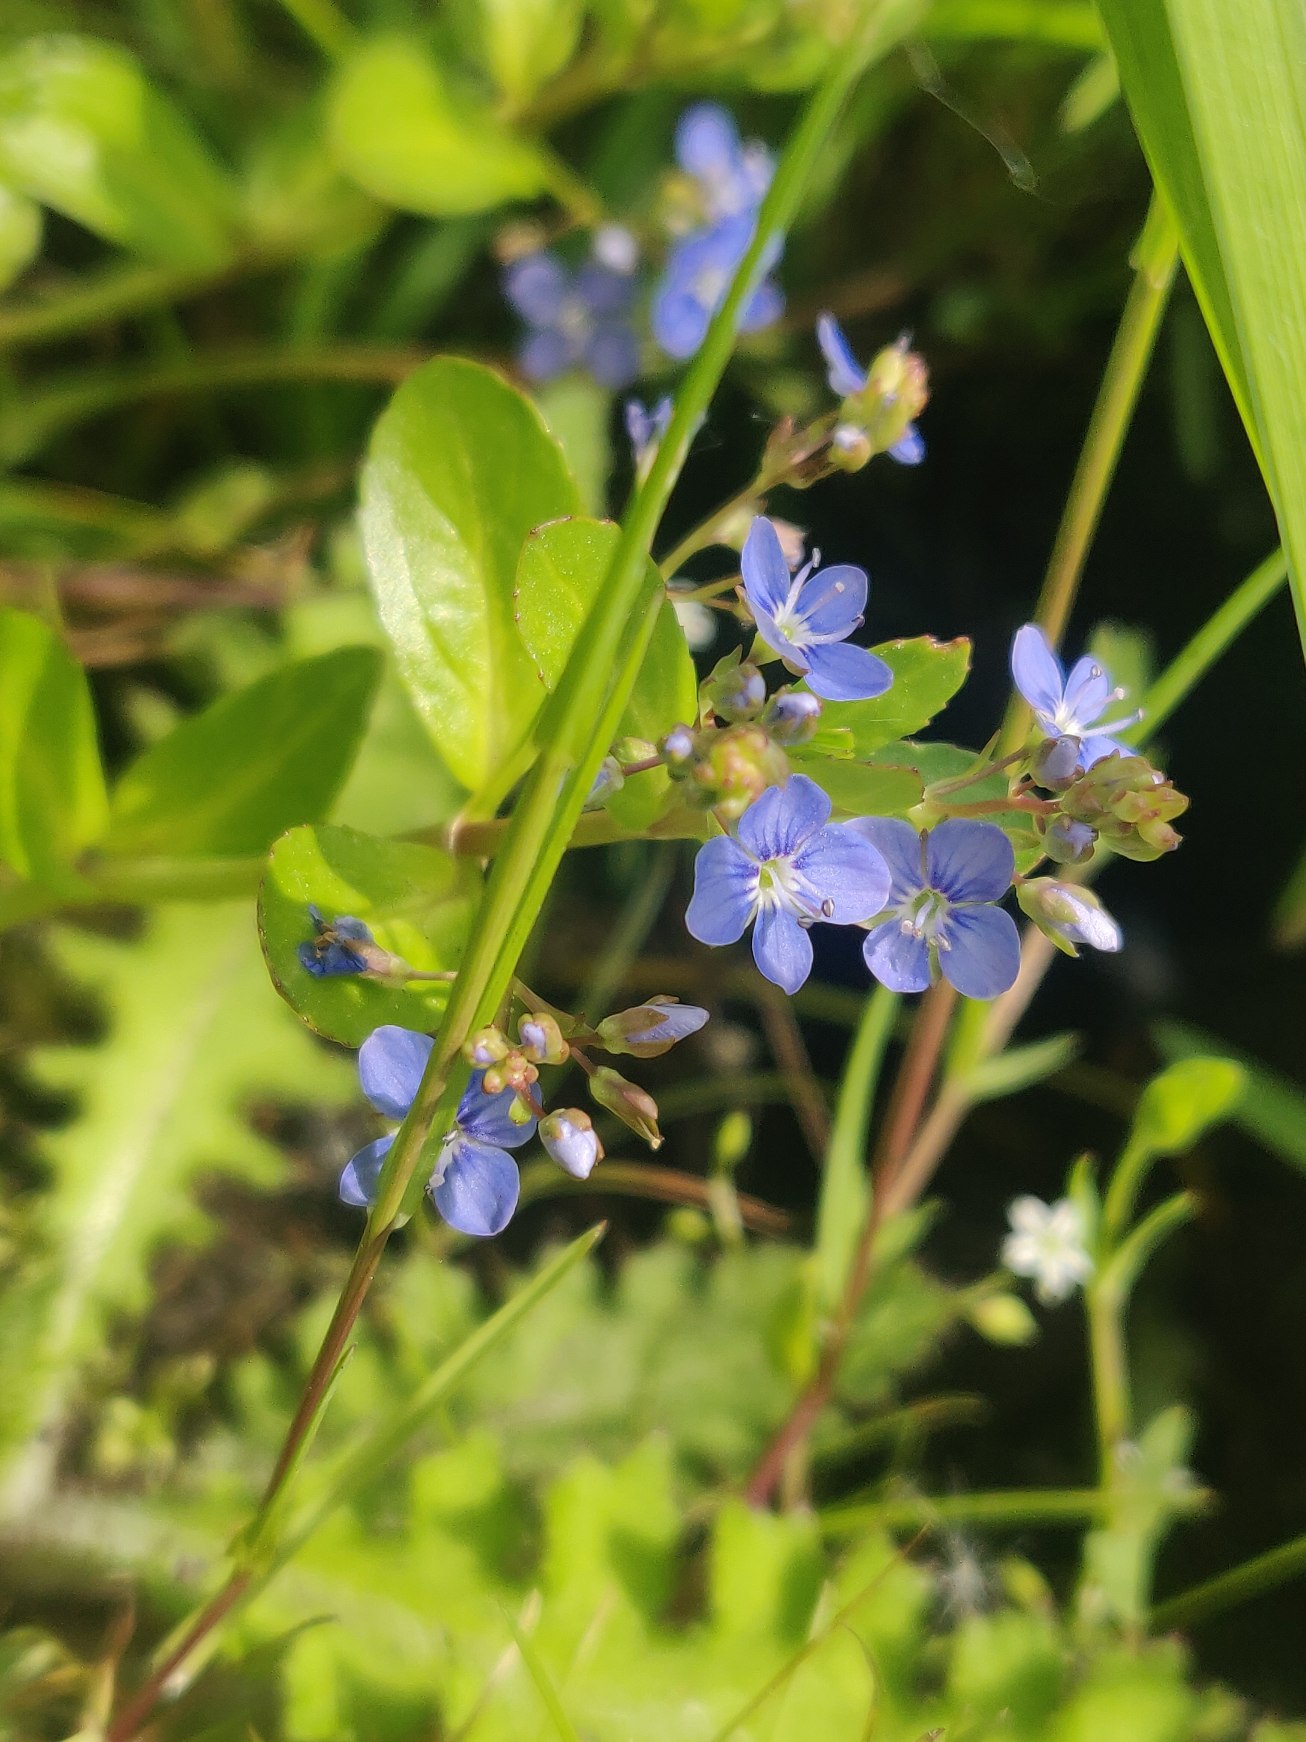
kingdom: Plantae
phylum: Tracheophyta
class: Magnoliopsida
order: Lamiales
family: Plantaginaceae
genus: Veronica
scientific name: Veronica beccabunga
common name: Tykbladet ærenpris
